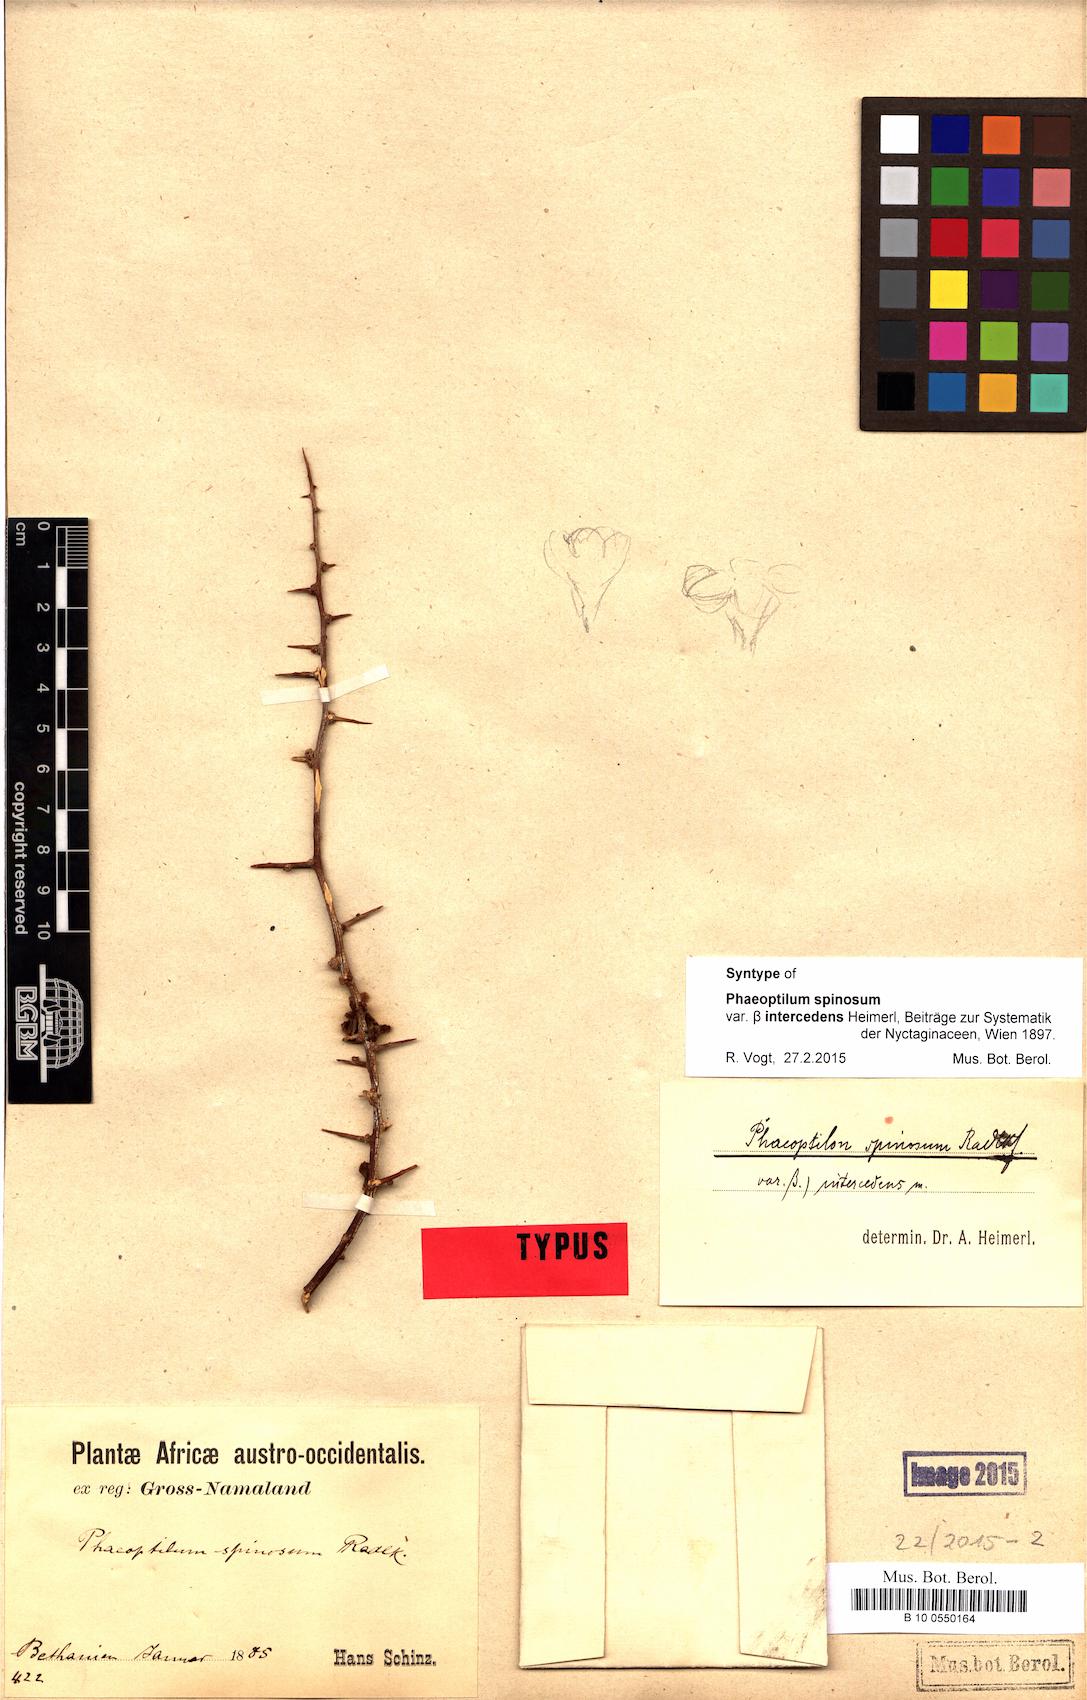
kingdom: Plantae
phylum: Tracheophyta
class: Magnoliopsida
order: Caryophyllales
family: Nyctaginaceae
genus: Phaeoptilum
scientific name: Phaeoptilum spinosum
